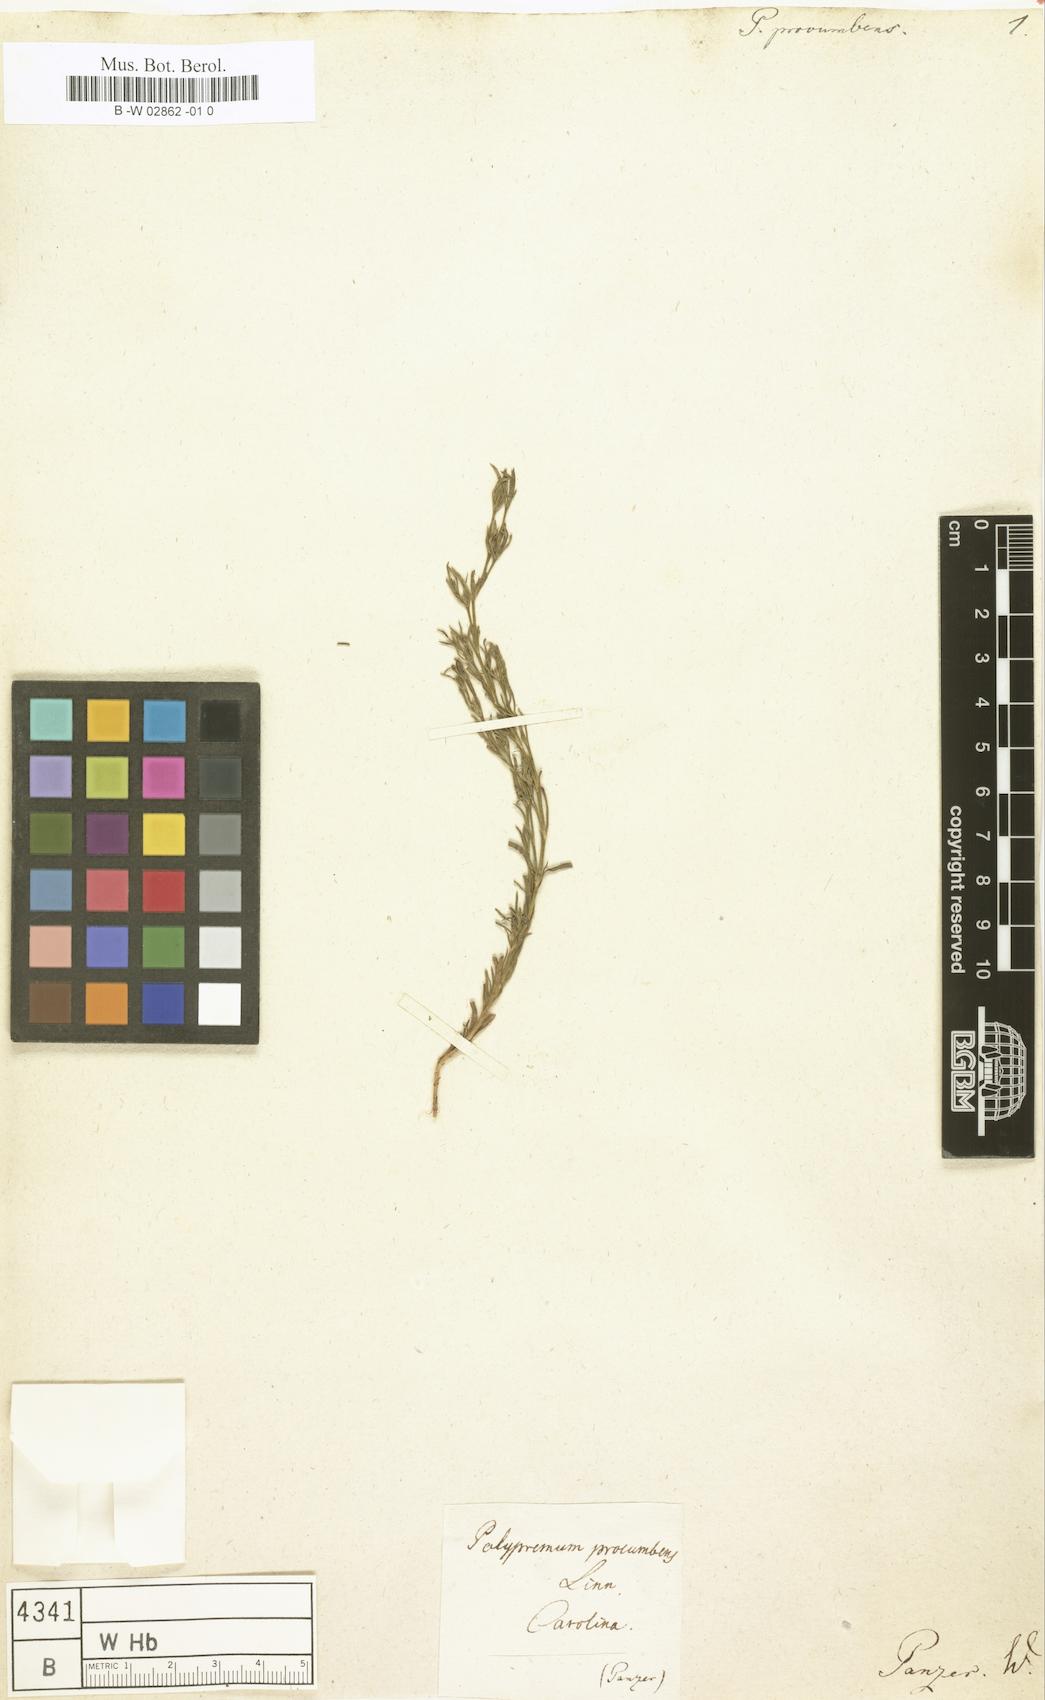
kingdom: Plantae
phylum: Tracheophyta
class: Magnoliopsida
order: Lamiales
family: Tetrachondraceae
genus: Polypremum
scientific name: Polypremum procumbens
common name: Juniper-leaf
